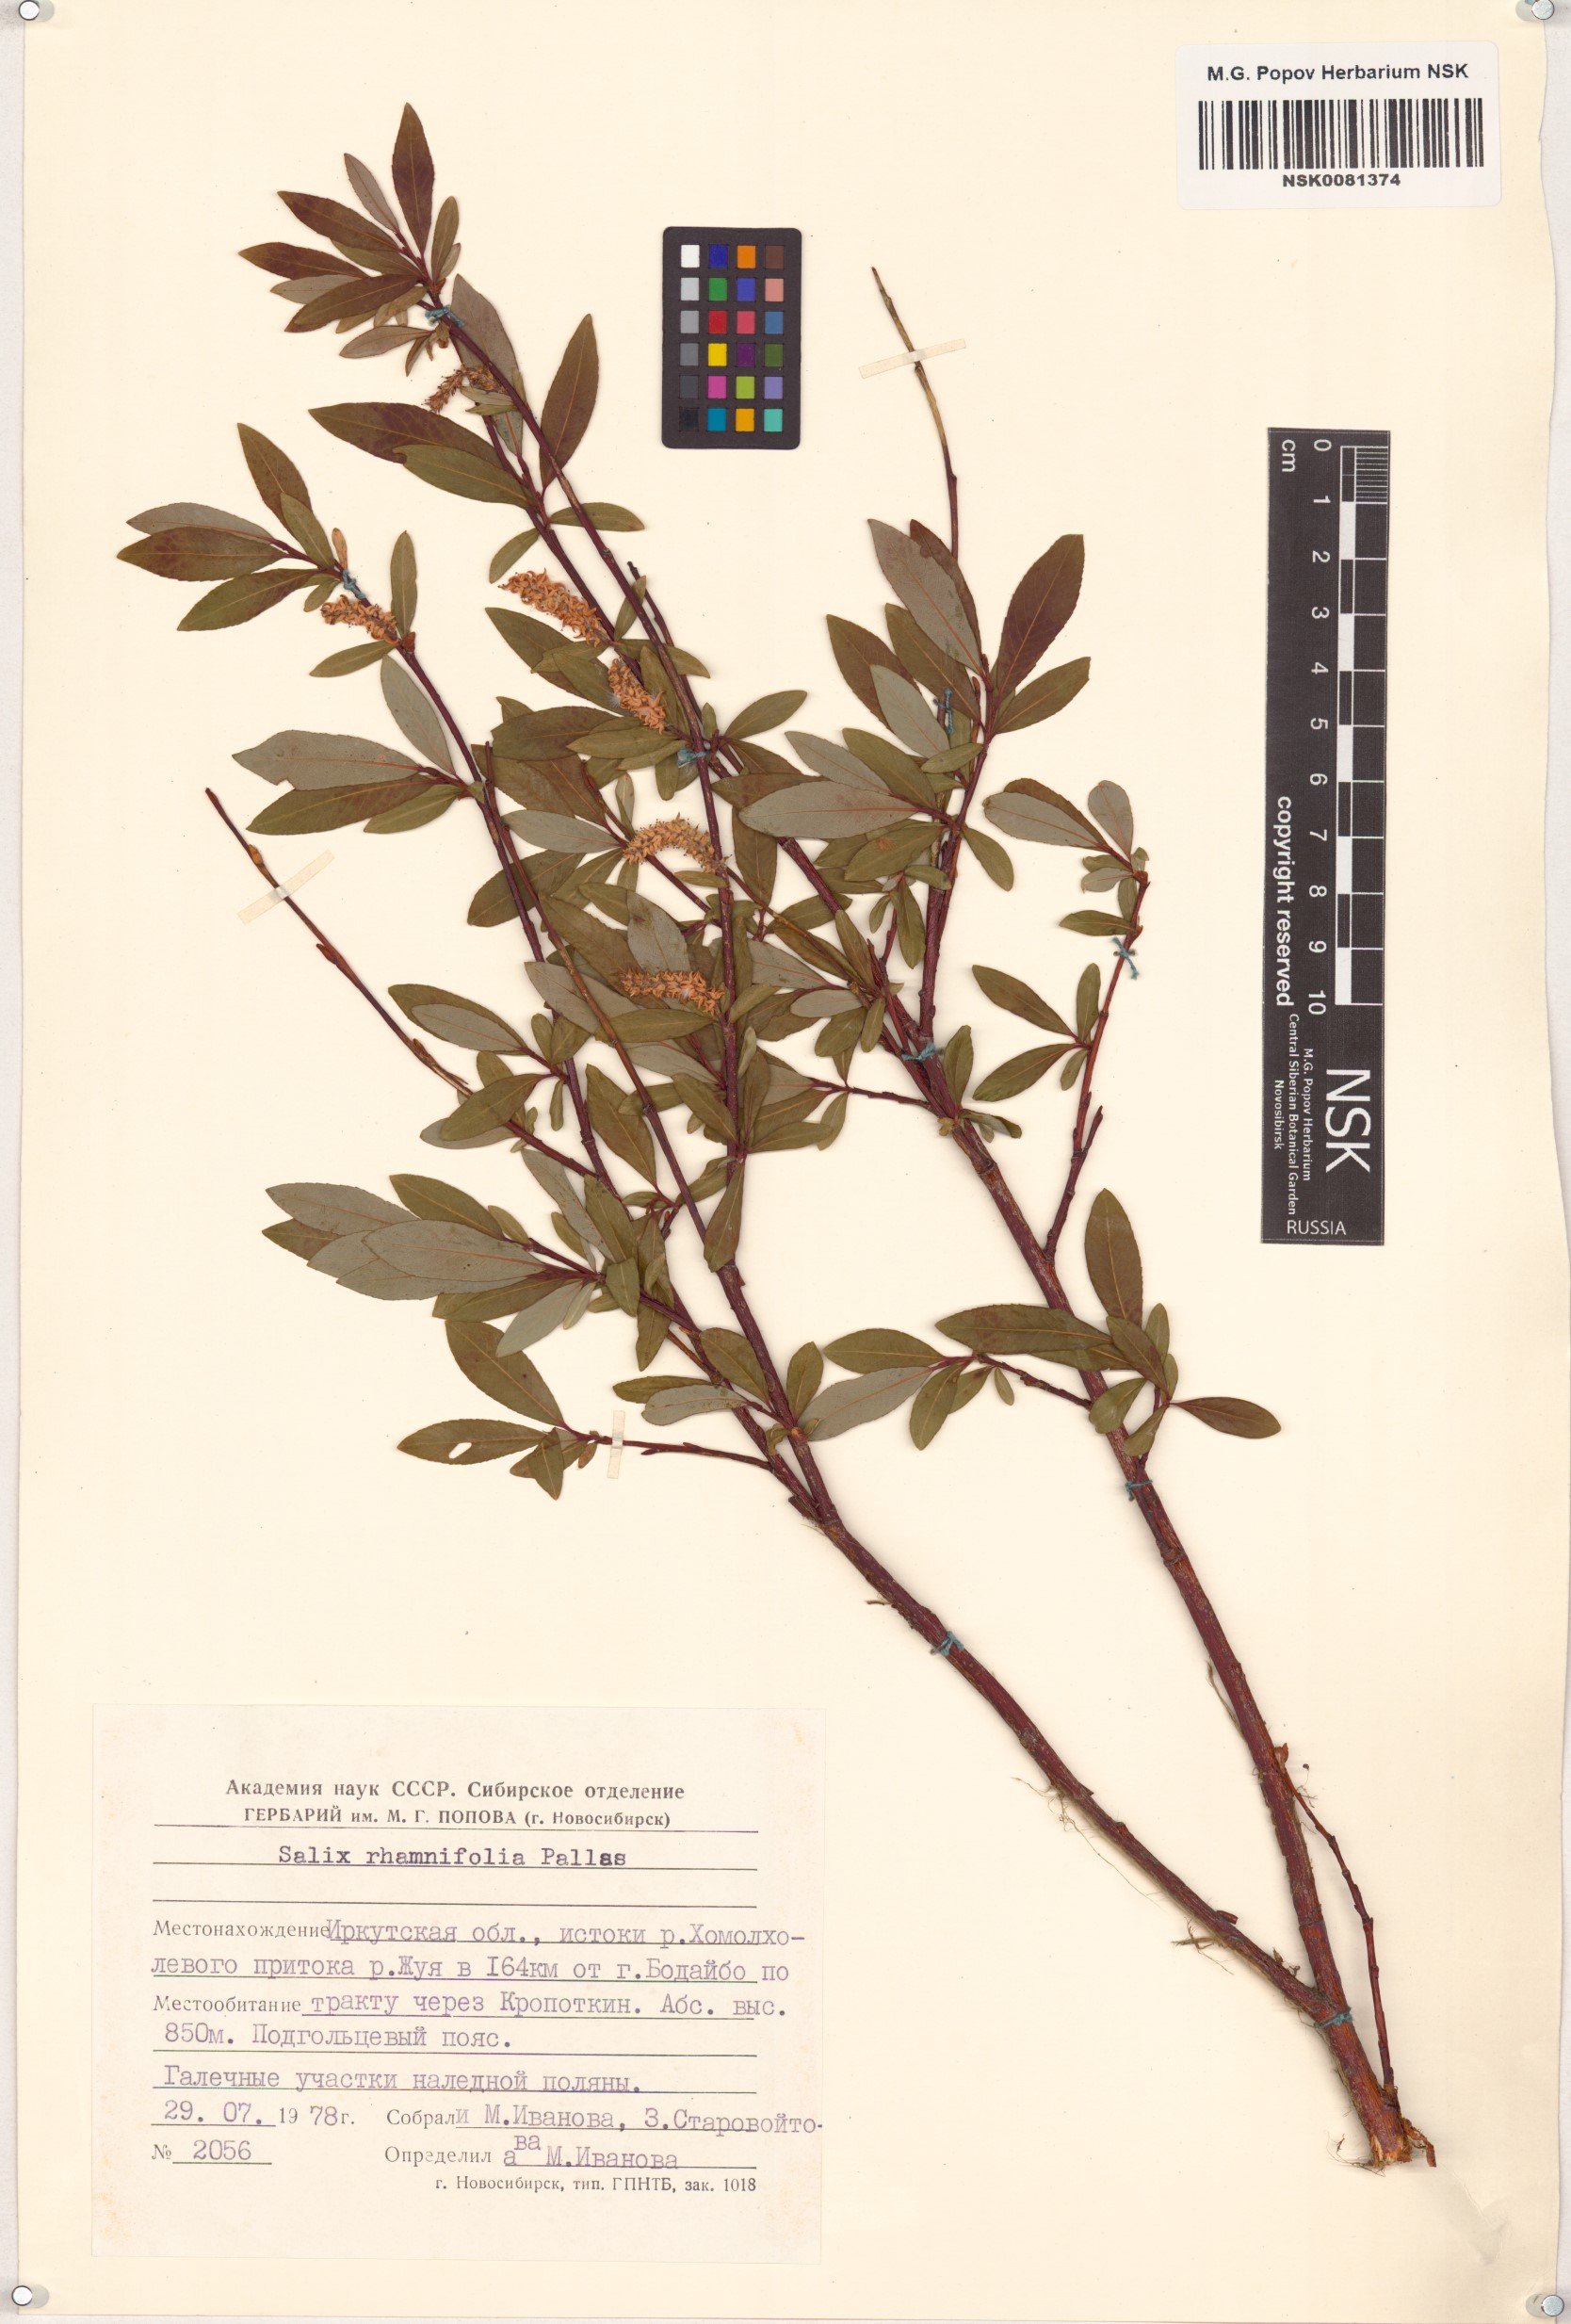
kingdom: Plantae
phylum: Tracheophyta
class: Magnoliopsida
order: Malpighiales
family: Salicaceae
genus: Salix
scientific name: Salix rhamnifolia
